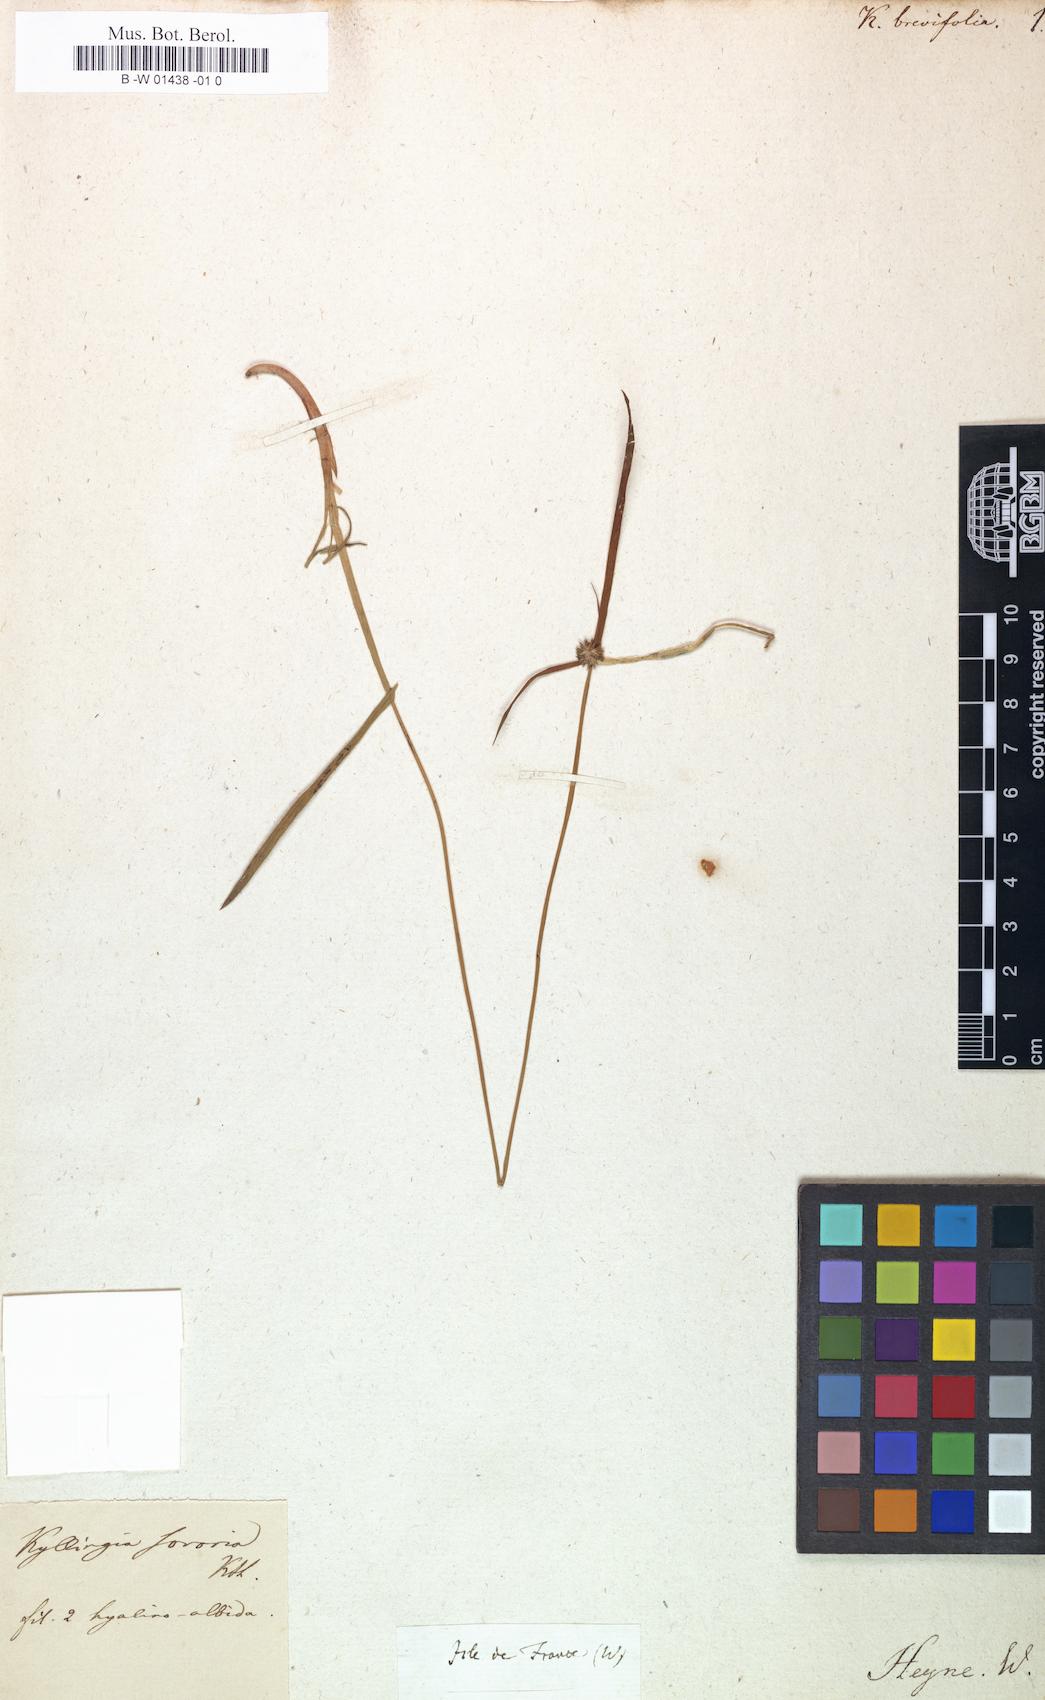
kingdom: Plantae
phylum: Tracheophyta
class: Liliopsida
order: Poales
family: Cyperaceae
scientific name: Cyperaceae
